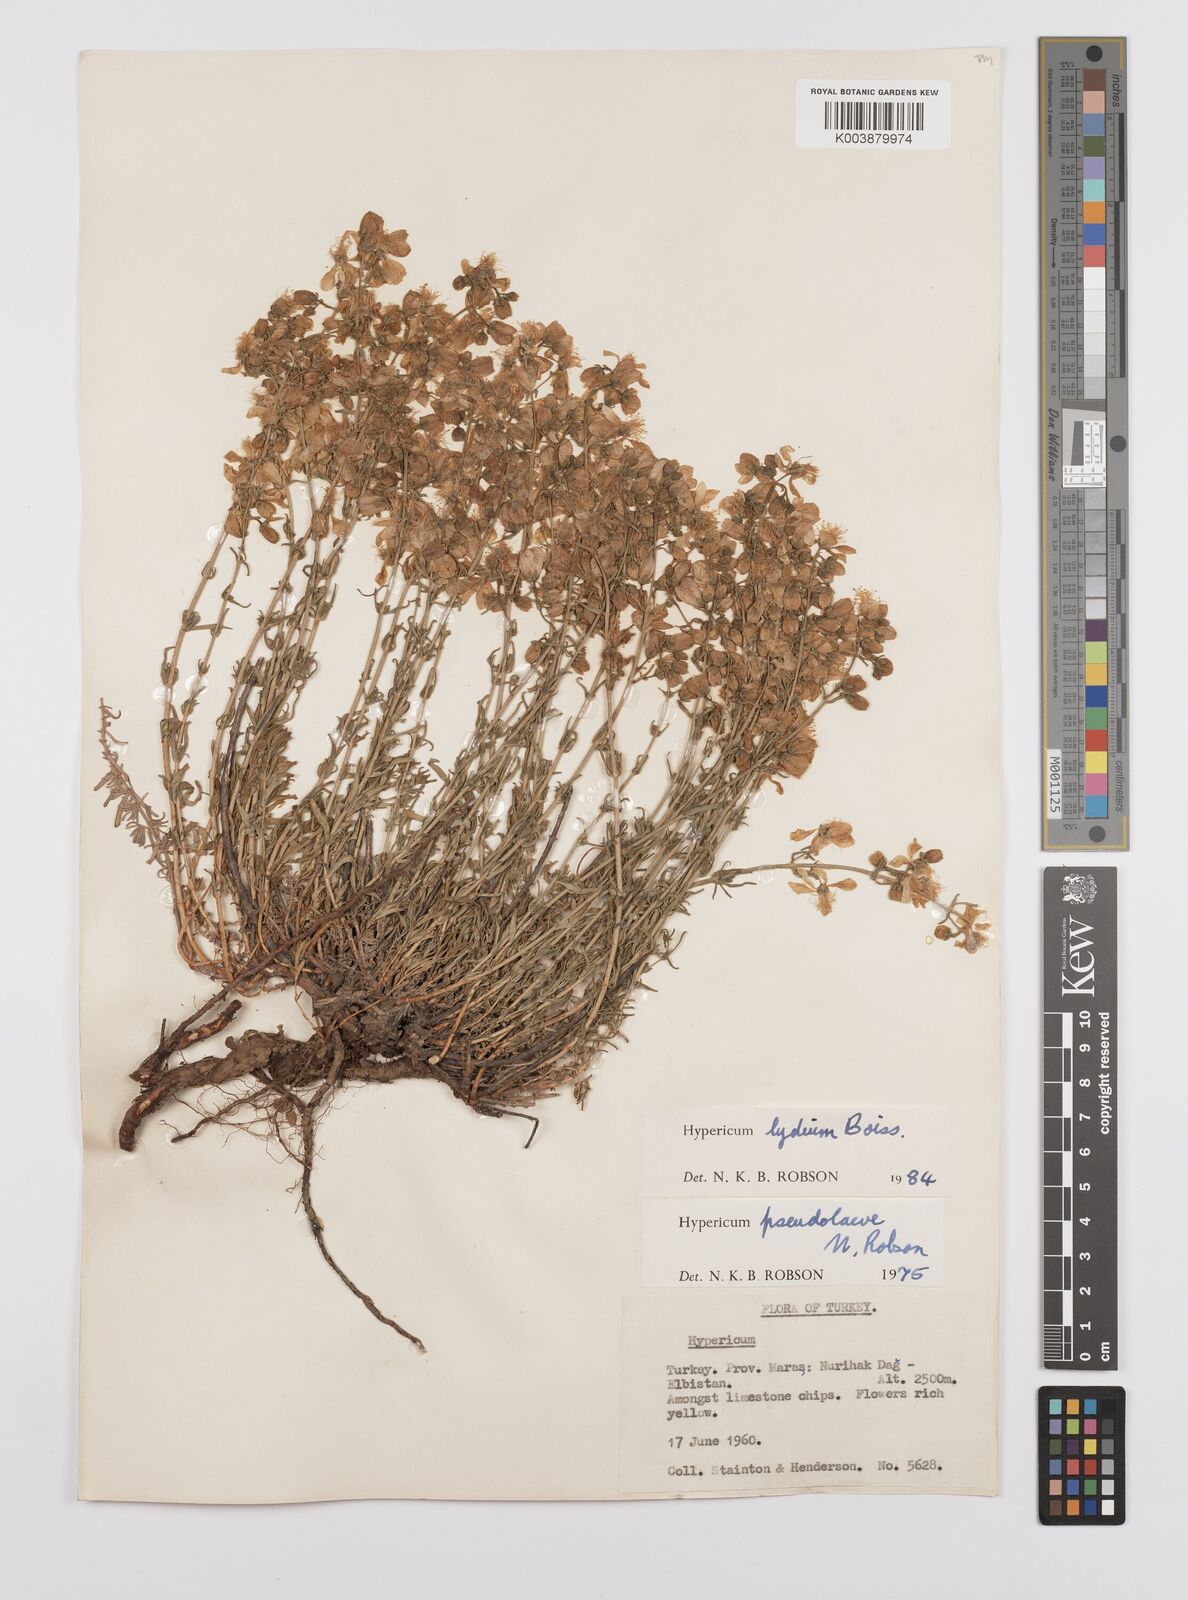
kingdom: Plantae
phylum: Tracheophyta
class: Magnoliopsida
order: Malpighiales
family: Hypericaceae
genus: Hypericum
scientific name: Hypericum lydium
